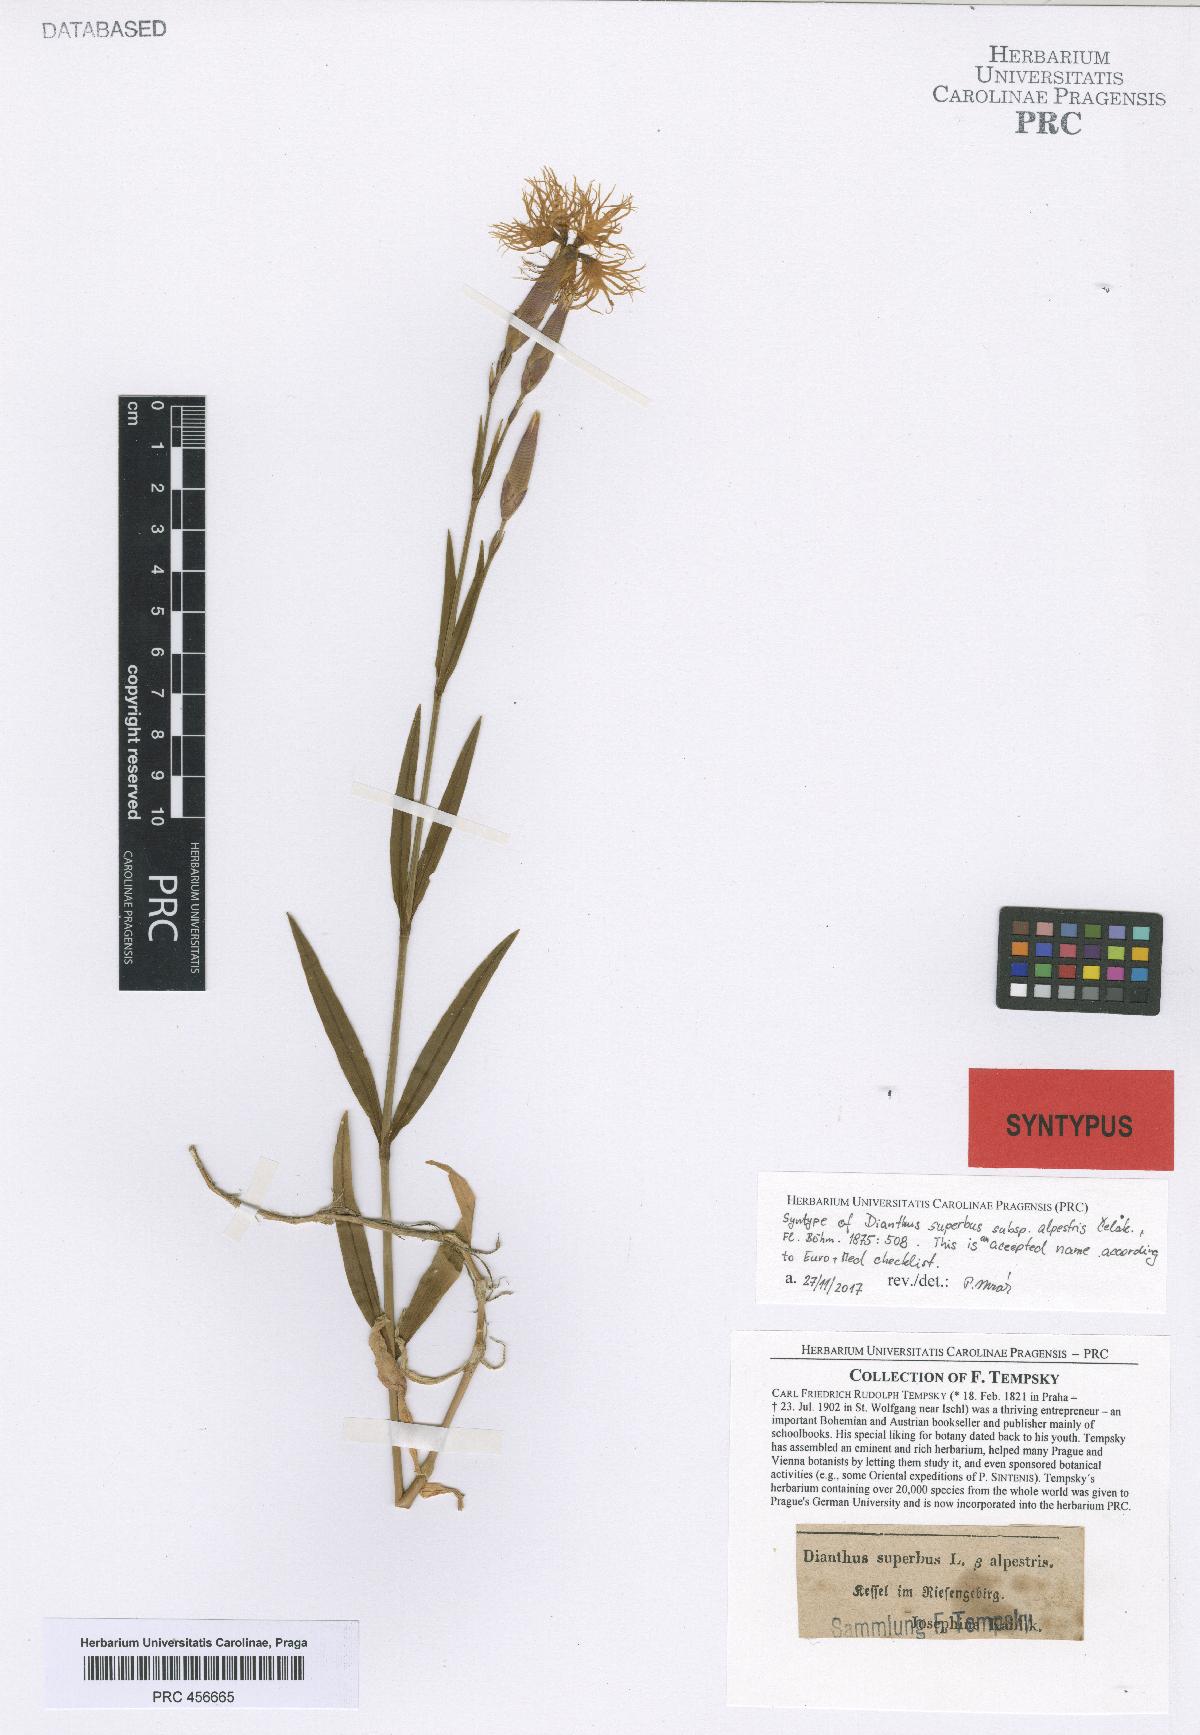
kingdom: Plantae
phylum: Tracheophyta
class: Magnoliopsida
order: Caryophyllales
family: Caryophyllaceae
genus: Dianthus
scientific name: Dianthus superbus
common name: Fringed pink
